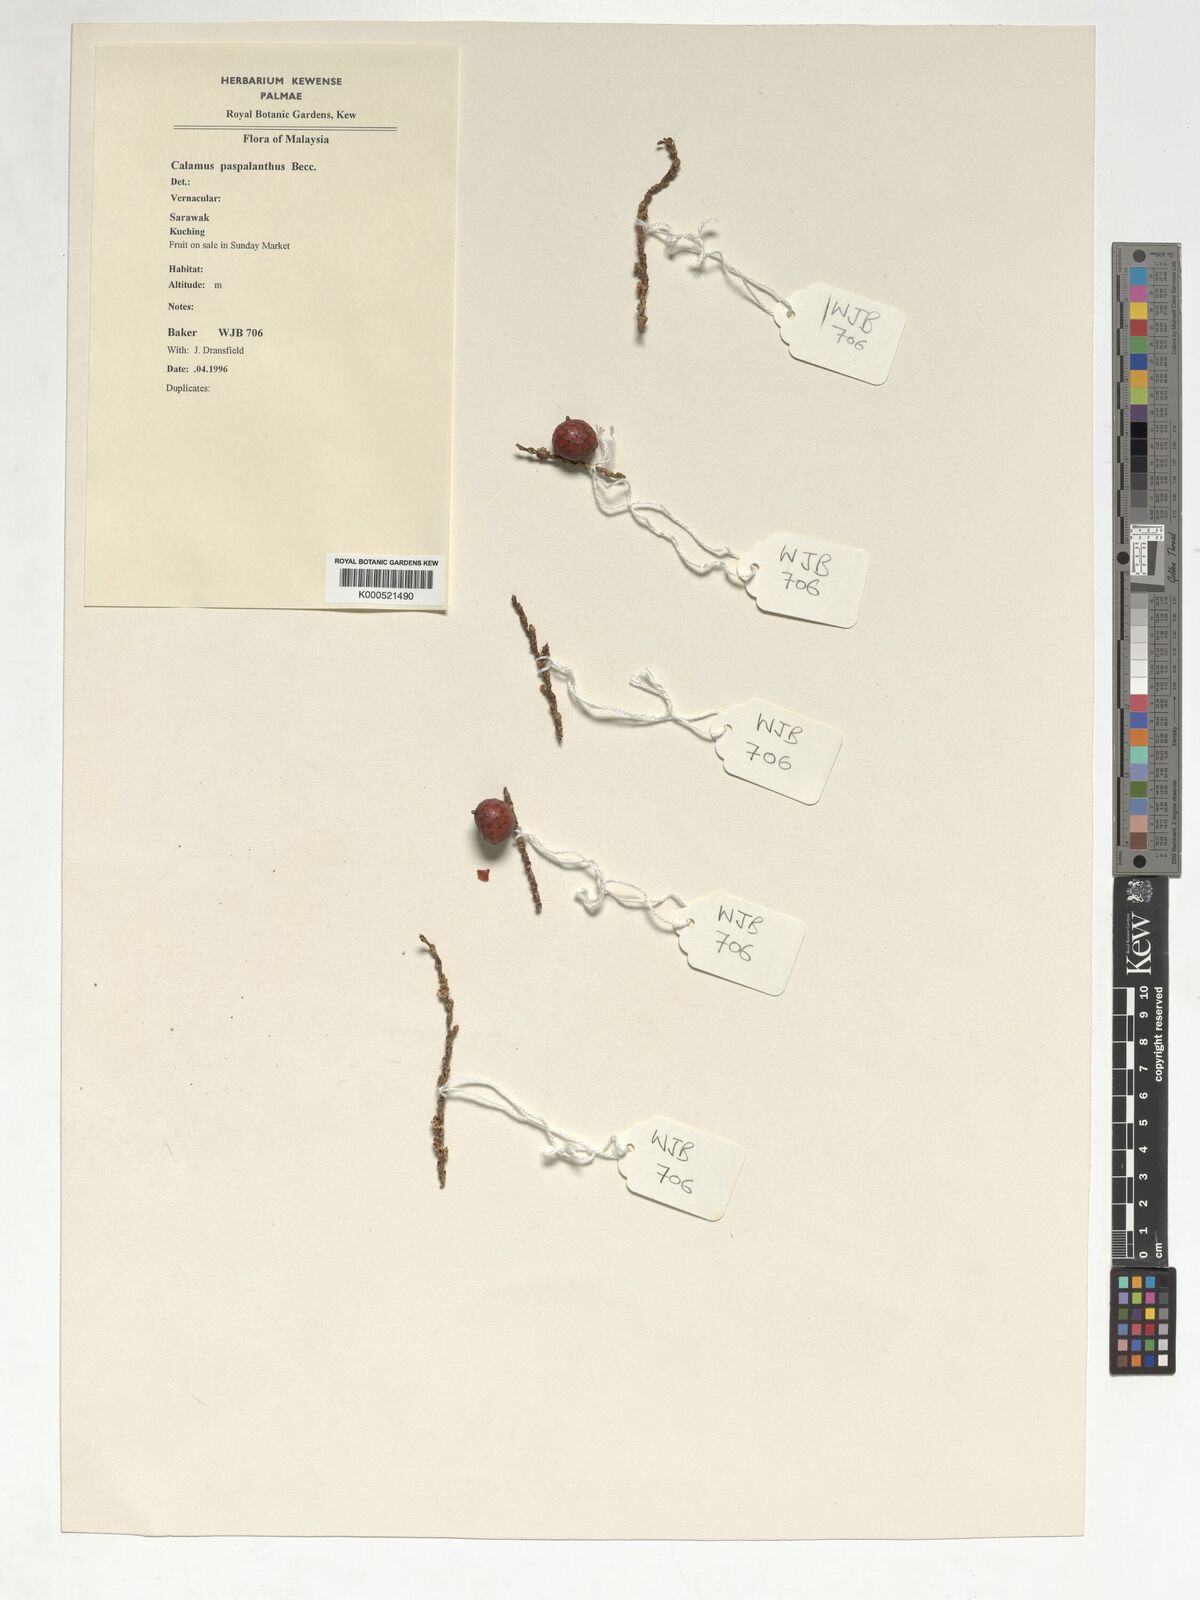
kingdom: Plantae
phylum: Tracheophyta
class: Liliopsida
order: Arecales
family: Arecaceae
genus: Calamus
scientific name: Calamus paspalanthus
